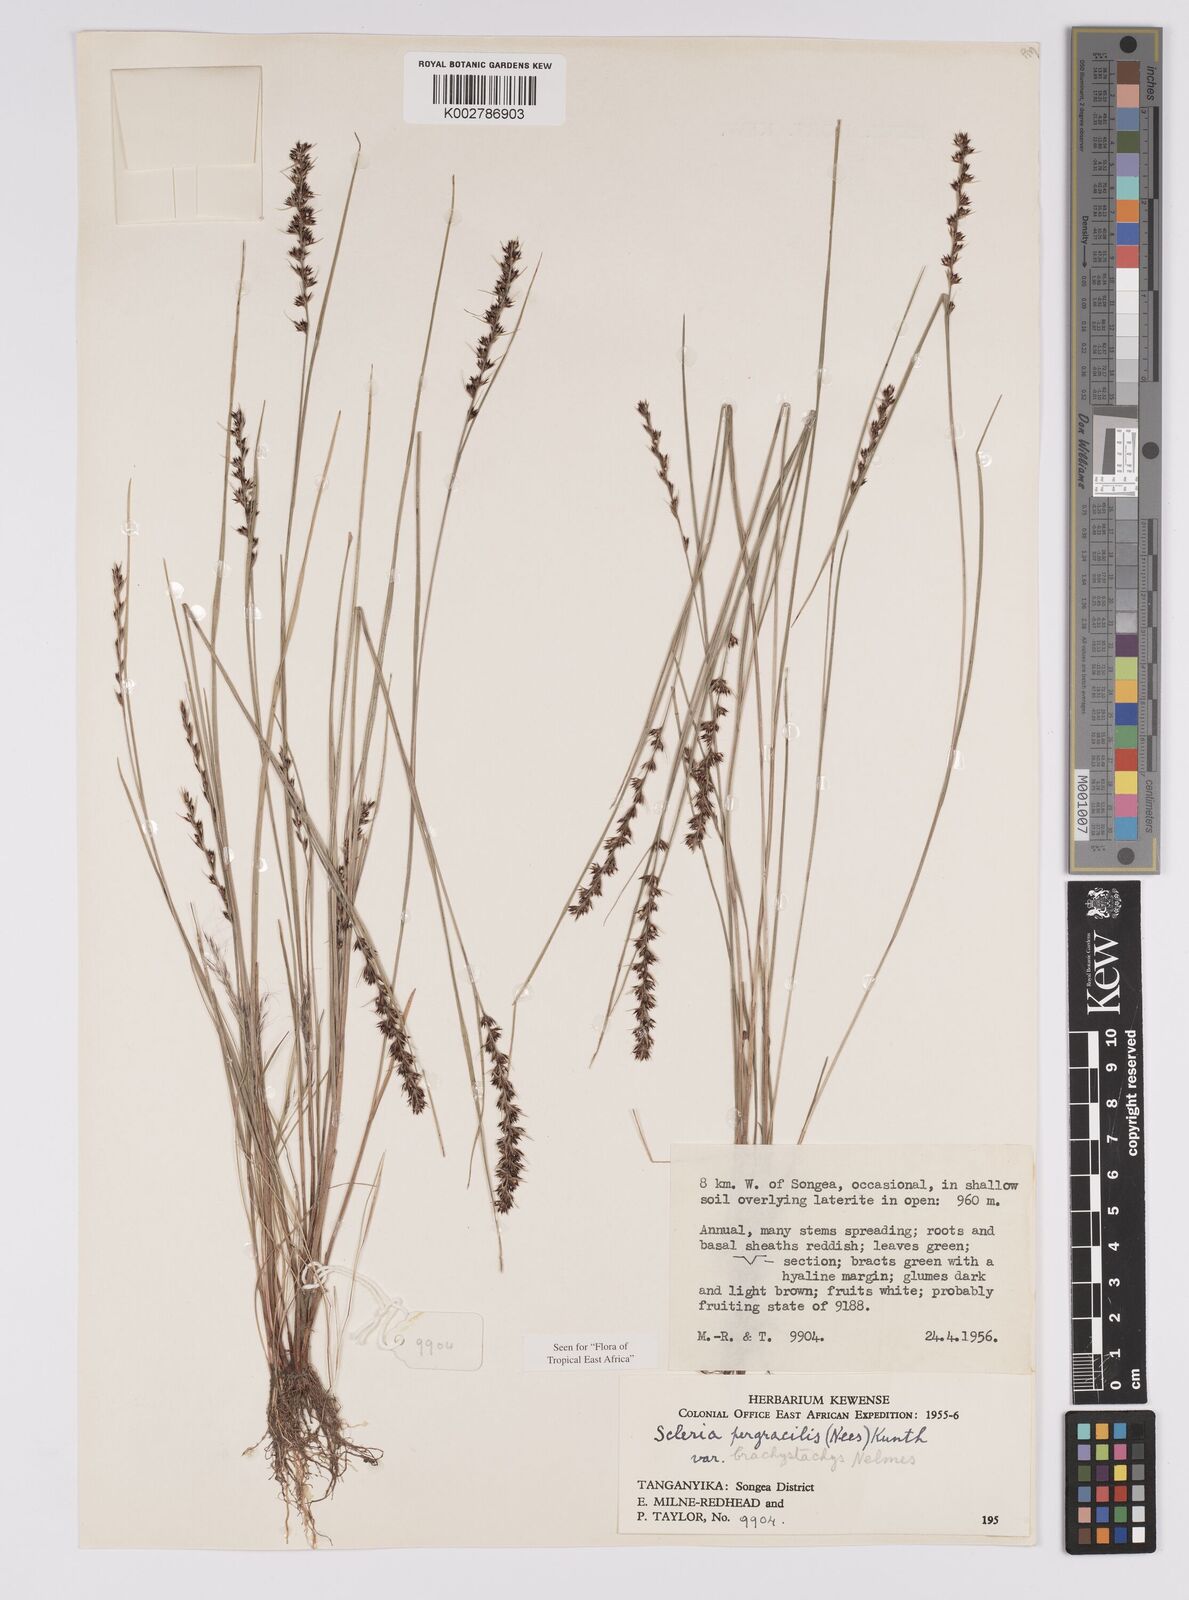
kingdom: Plantae
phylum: Tracheophyta
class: Liliopsida
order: Poales
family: Cyperaceae
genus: Scleria
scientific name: Scleria pergracilis
